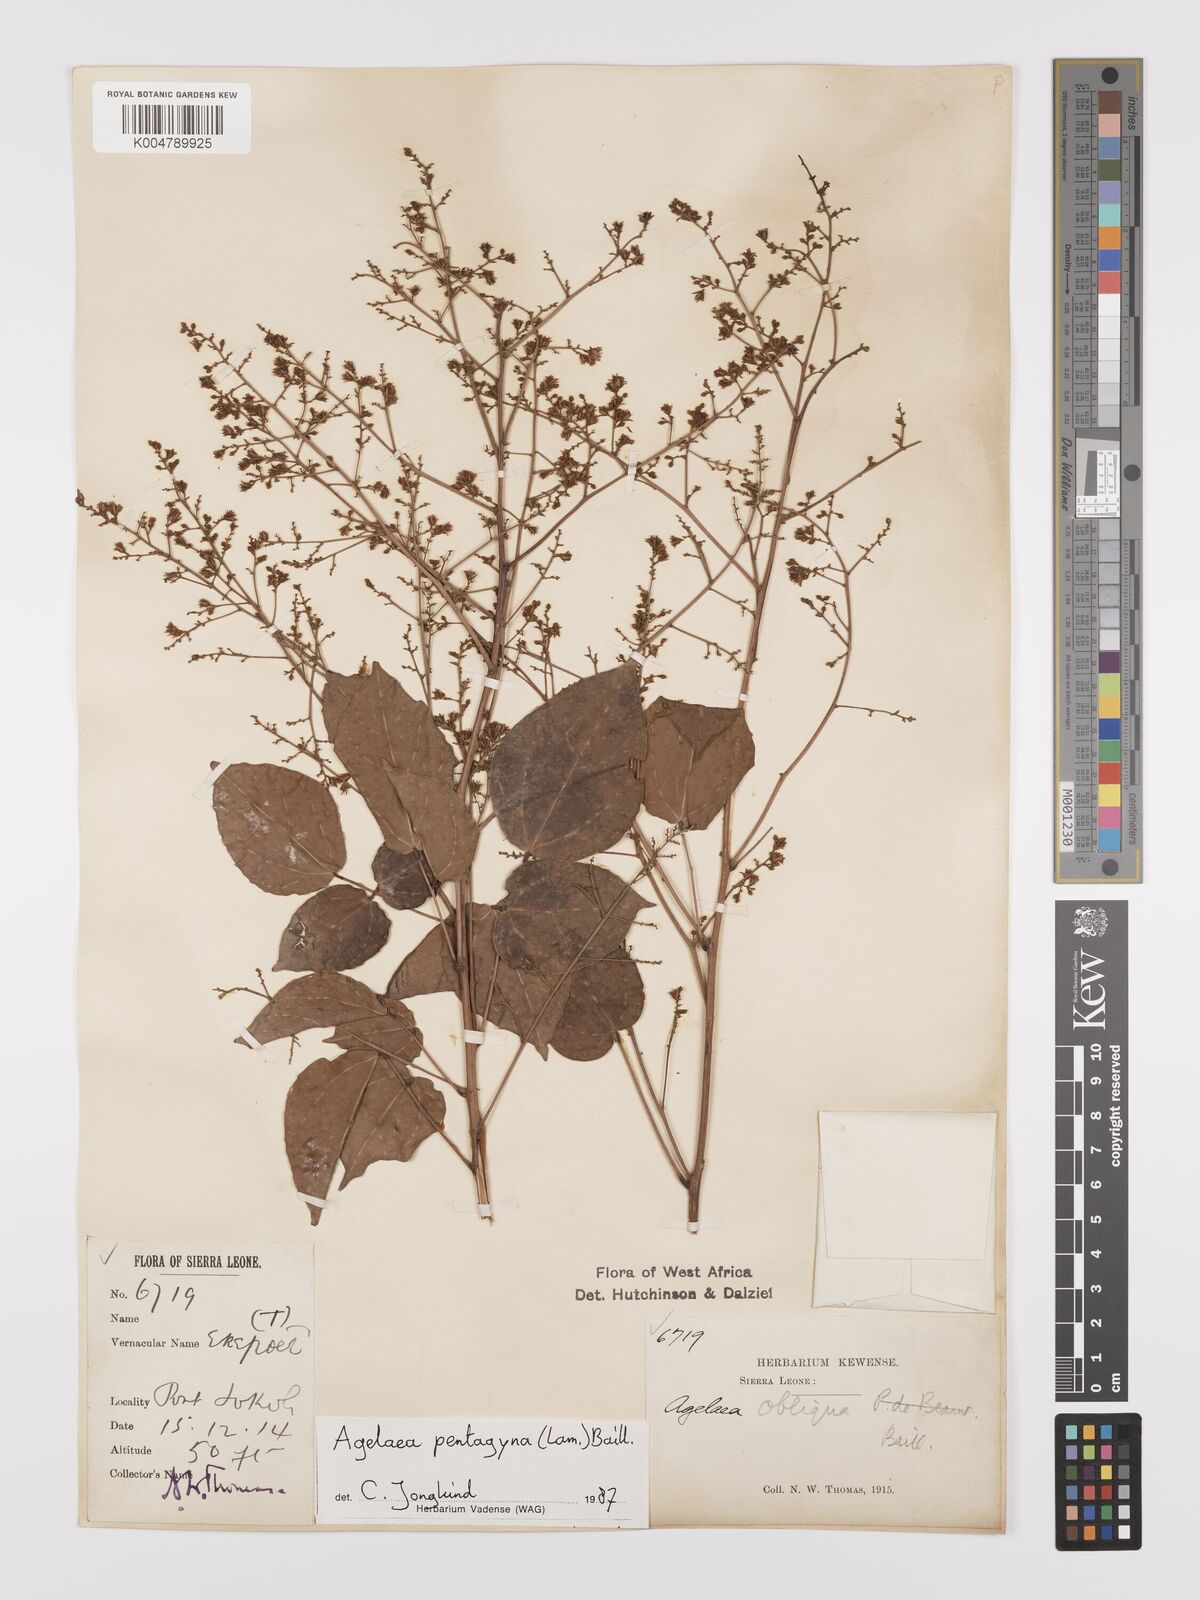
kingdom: Plantae
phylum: Tracheophyta
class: Magnoliopsida
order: Oxalidales
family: Connaraceae
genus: Agelaea
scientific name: Agelaea pentagyna
